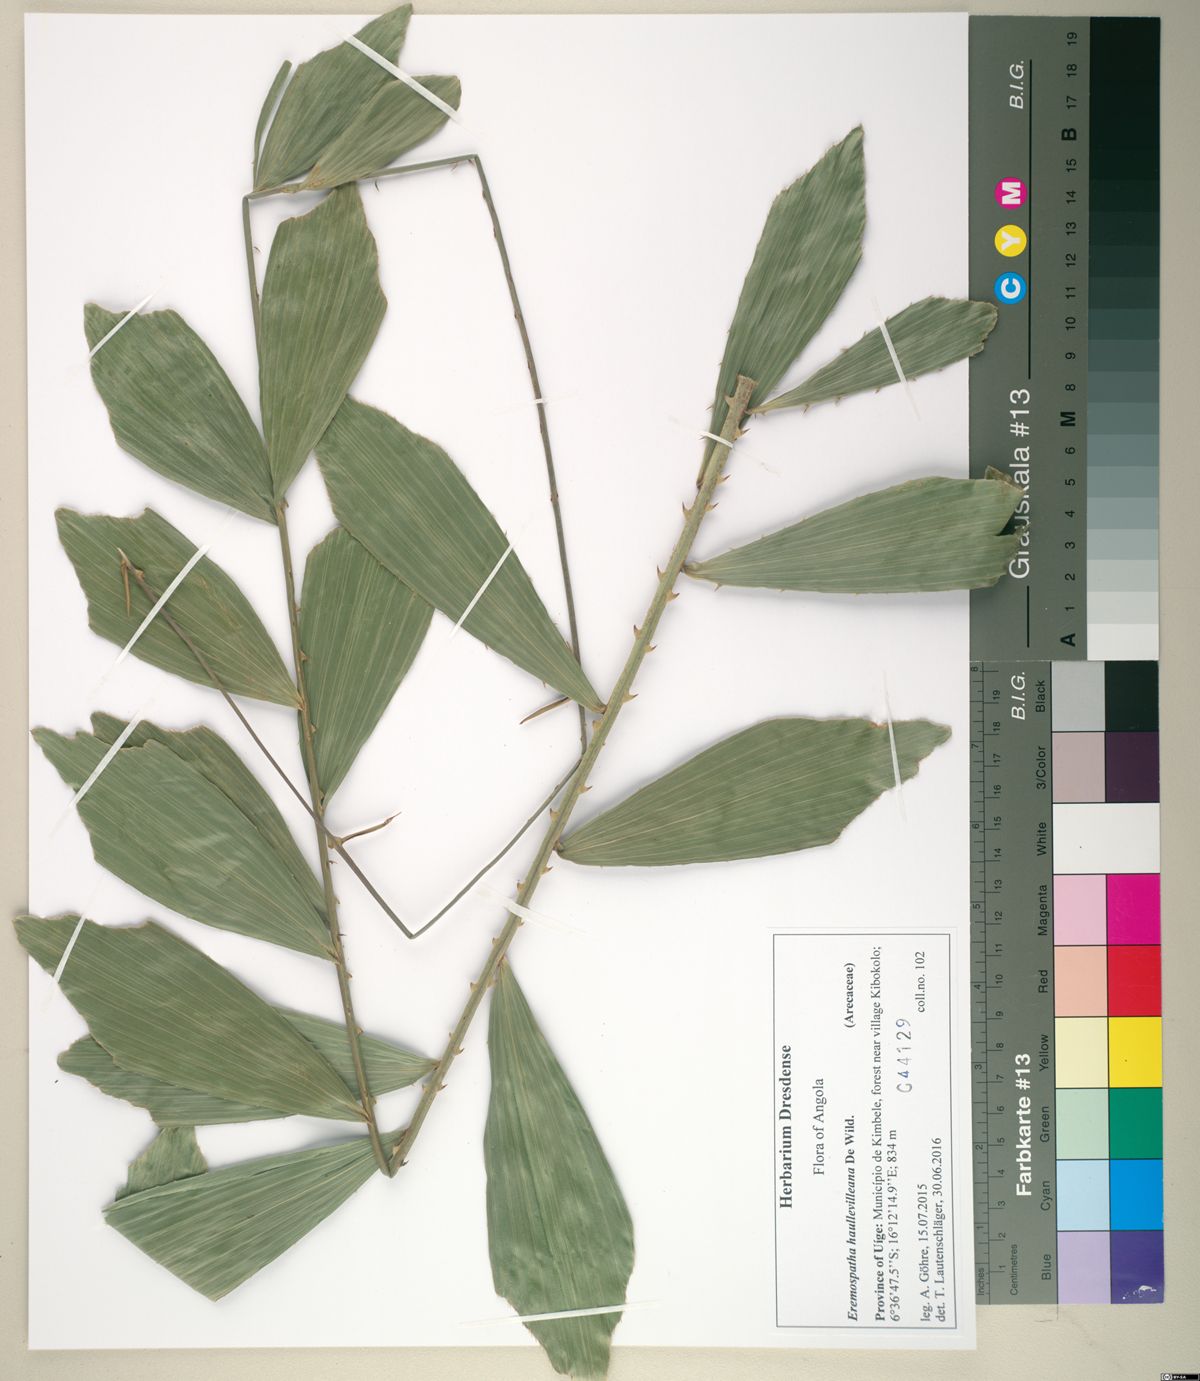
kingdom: Plantae
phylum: Tracheophyta
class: Liliopsida
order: Arecales
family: Arecaceae
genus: Eremospatha
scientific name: Eremospatha haullevilleana
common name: Rattan
